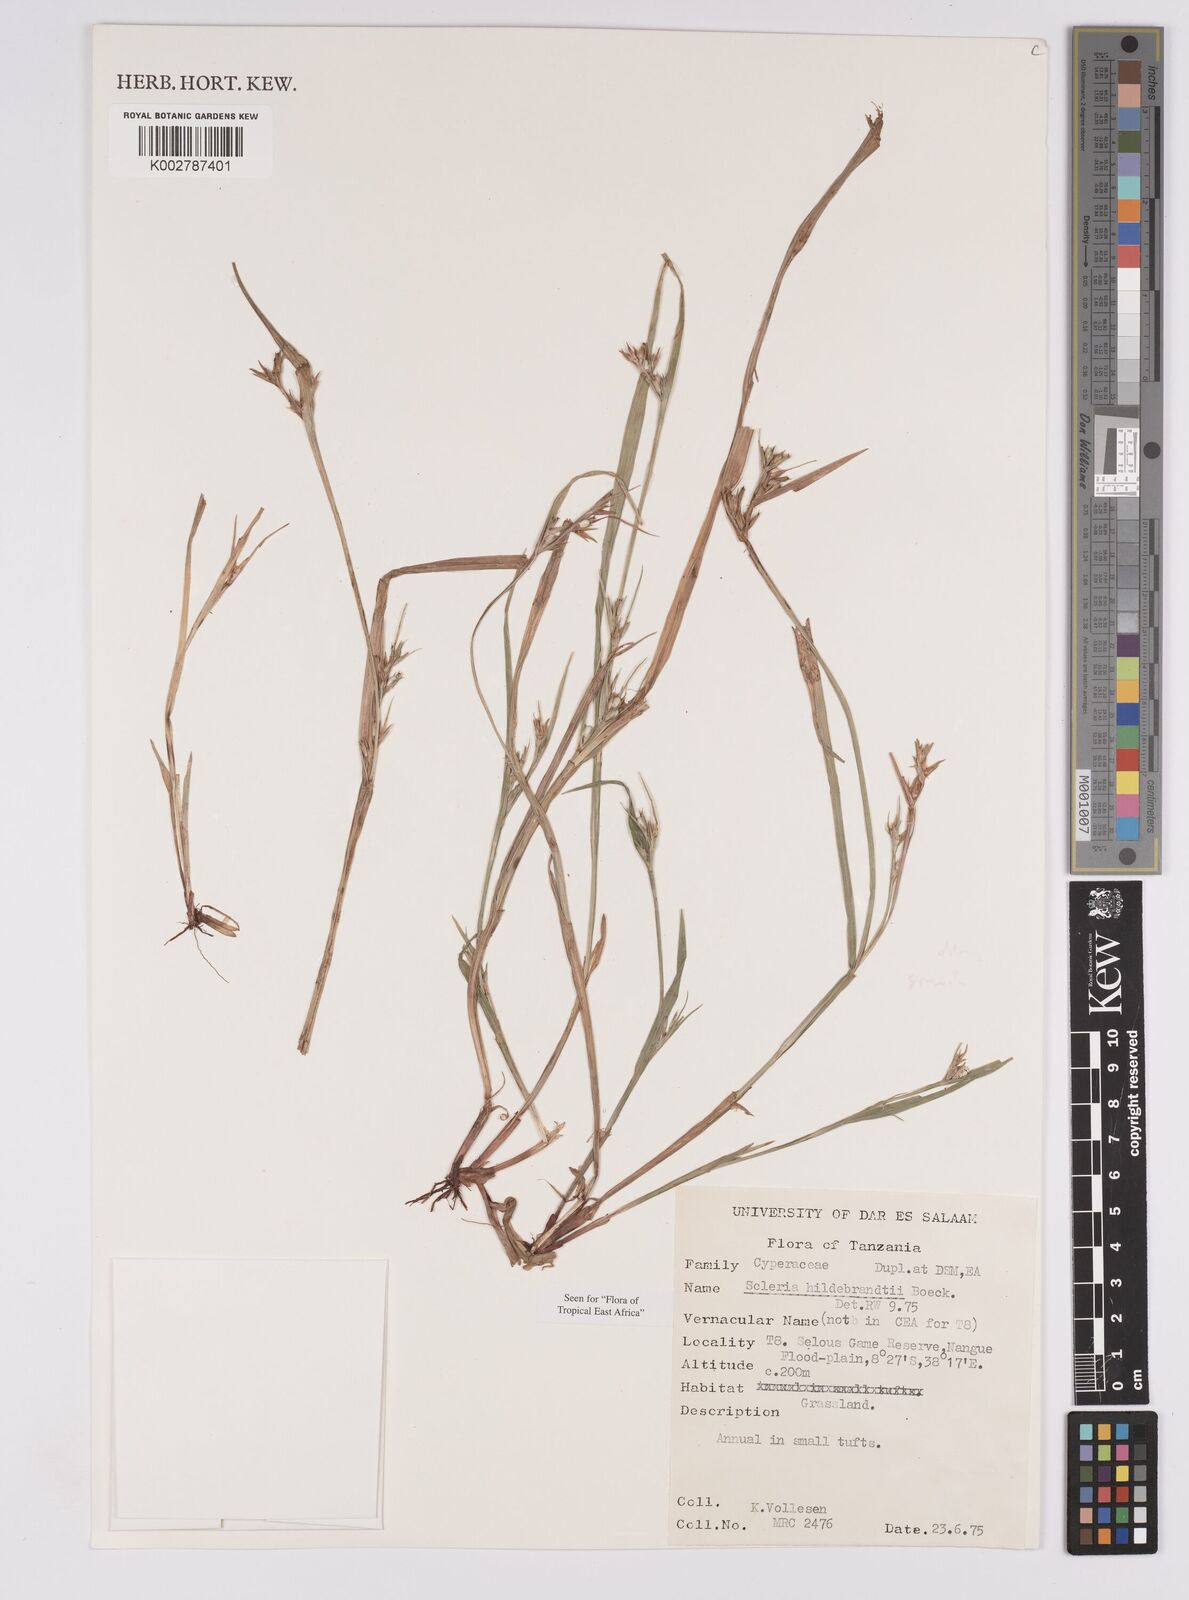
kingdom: Plantae
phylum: Tracheophyta
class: Liliopsida
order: Poales
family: Cyperaceae
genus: Scleria
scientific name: Scleria hildebrandtii
